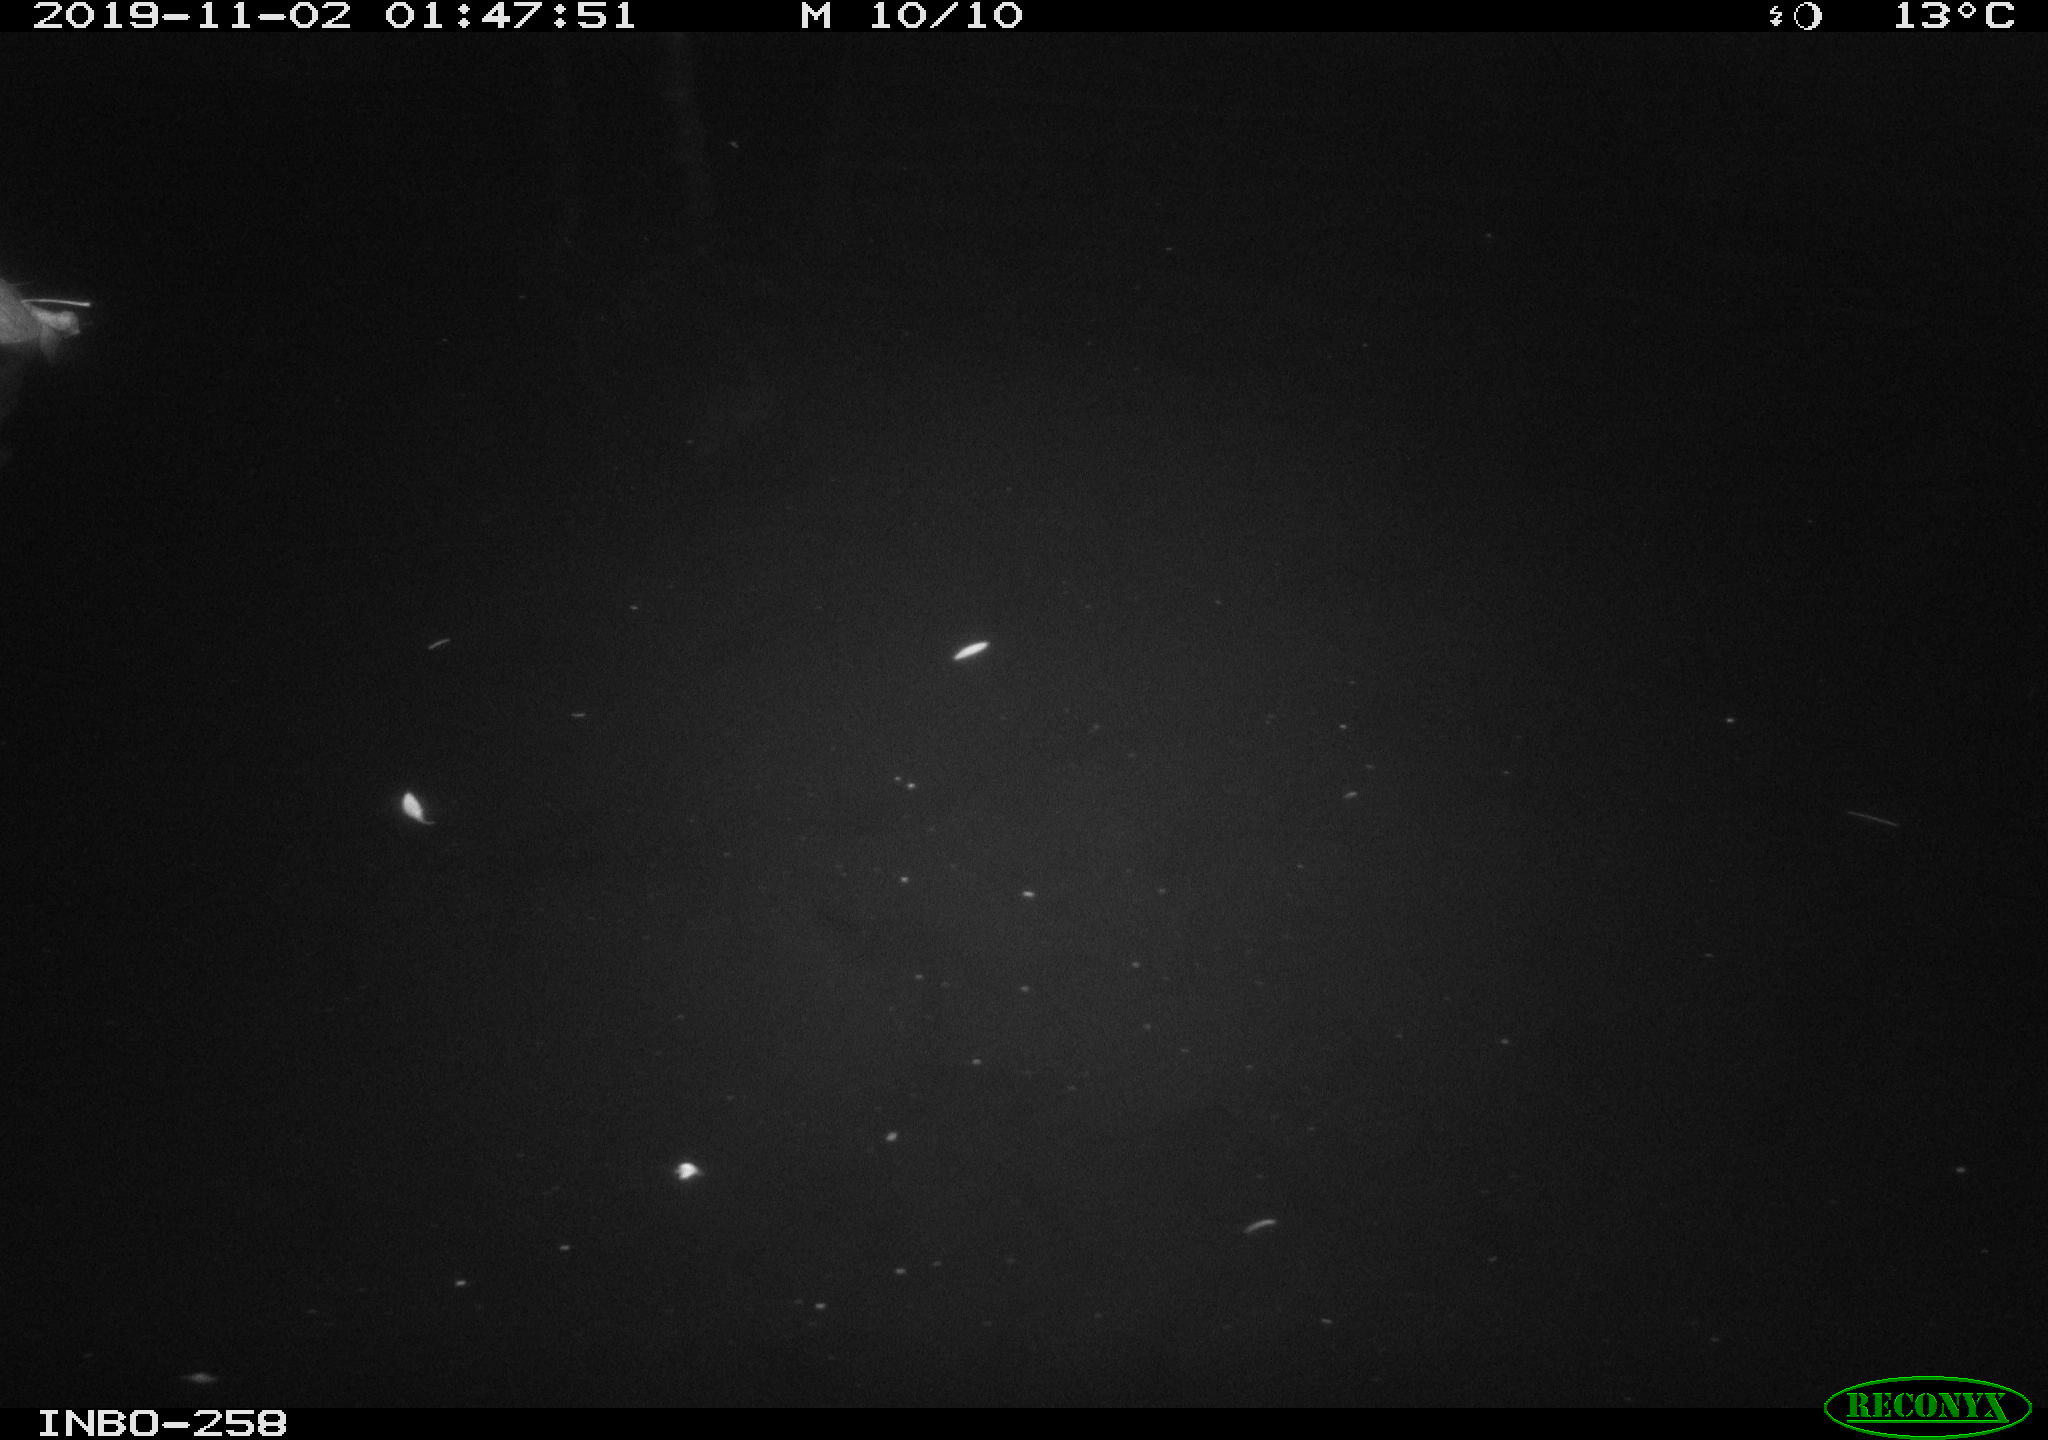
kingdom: Animalia
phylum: Chordata
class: Aves
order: Anseriformes
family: Anatidae
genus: Anas
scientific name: Anas platyrhynchos
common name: Mallard
